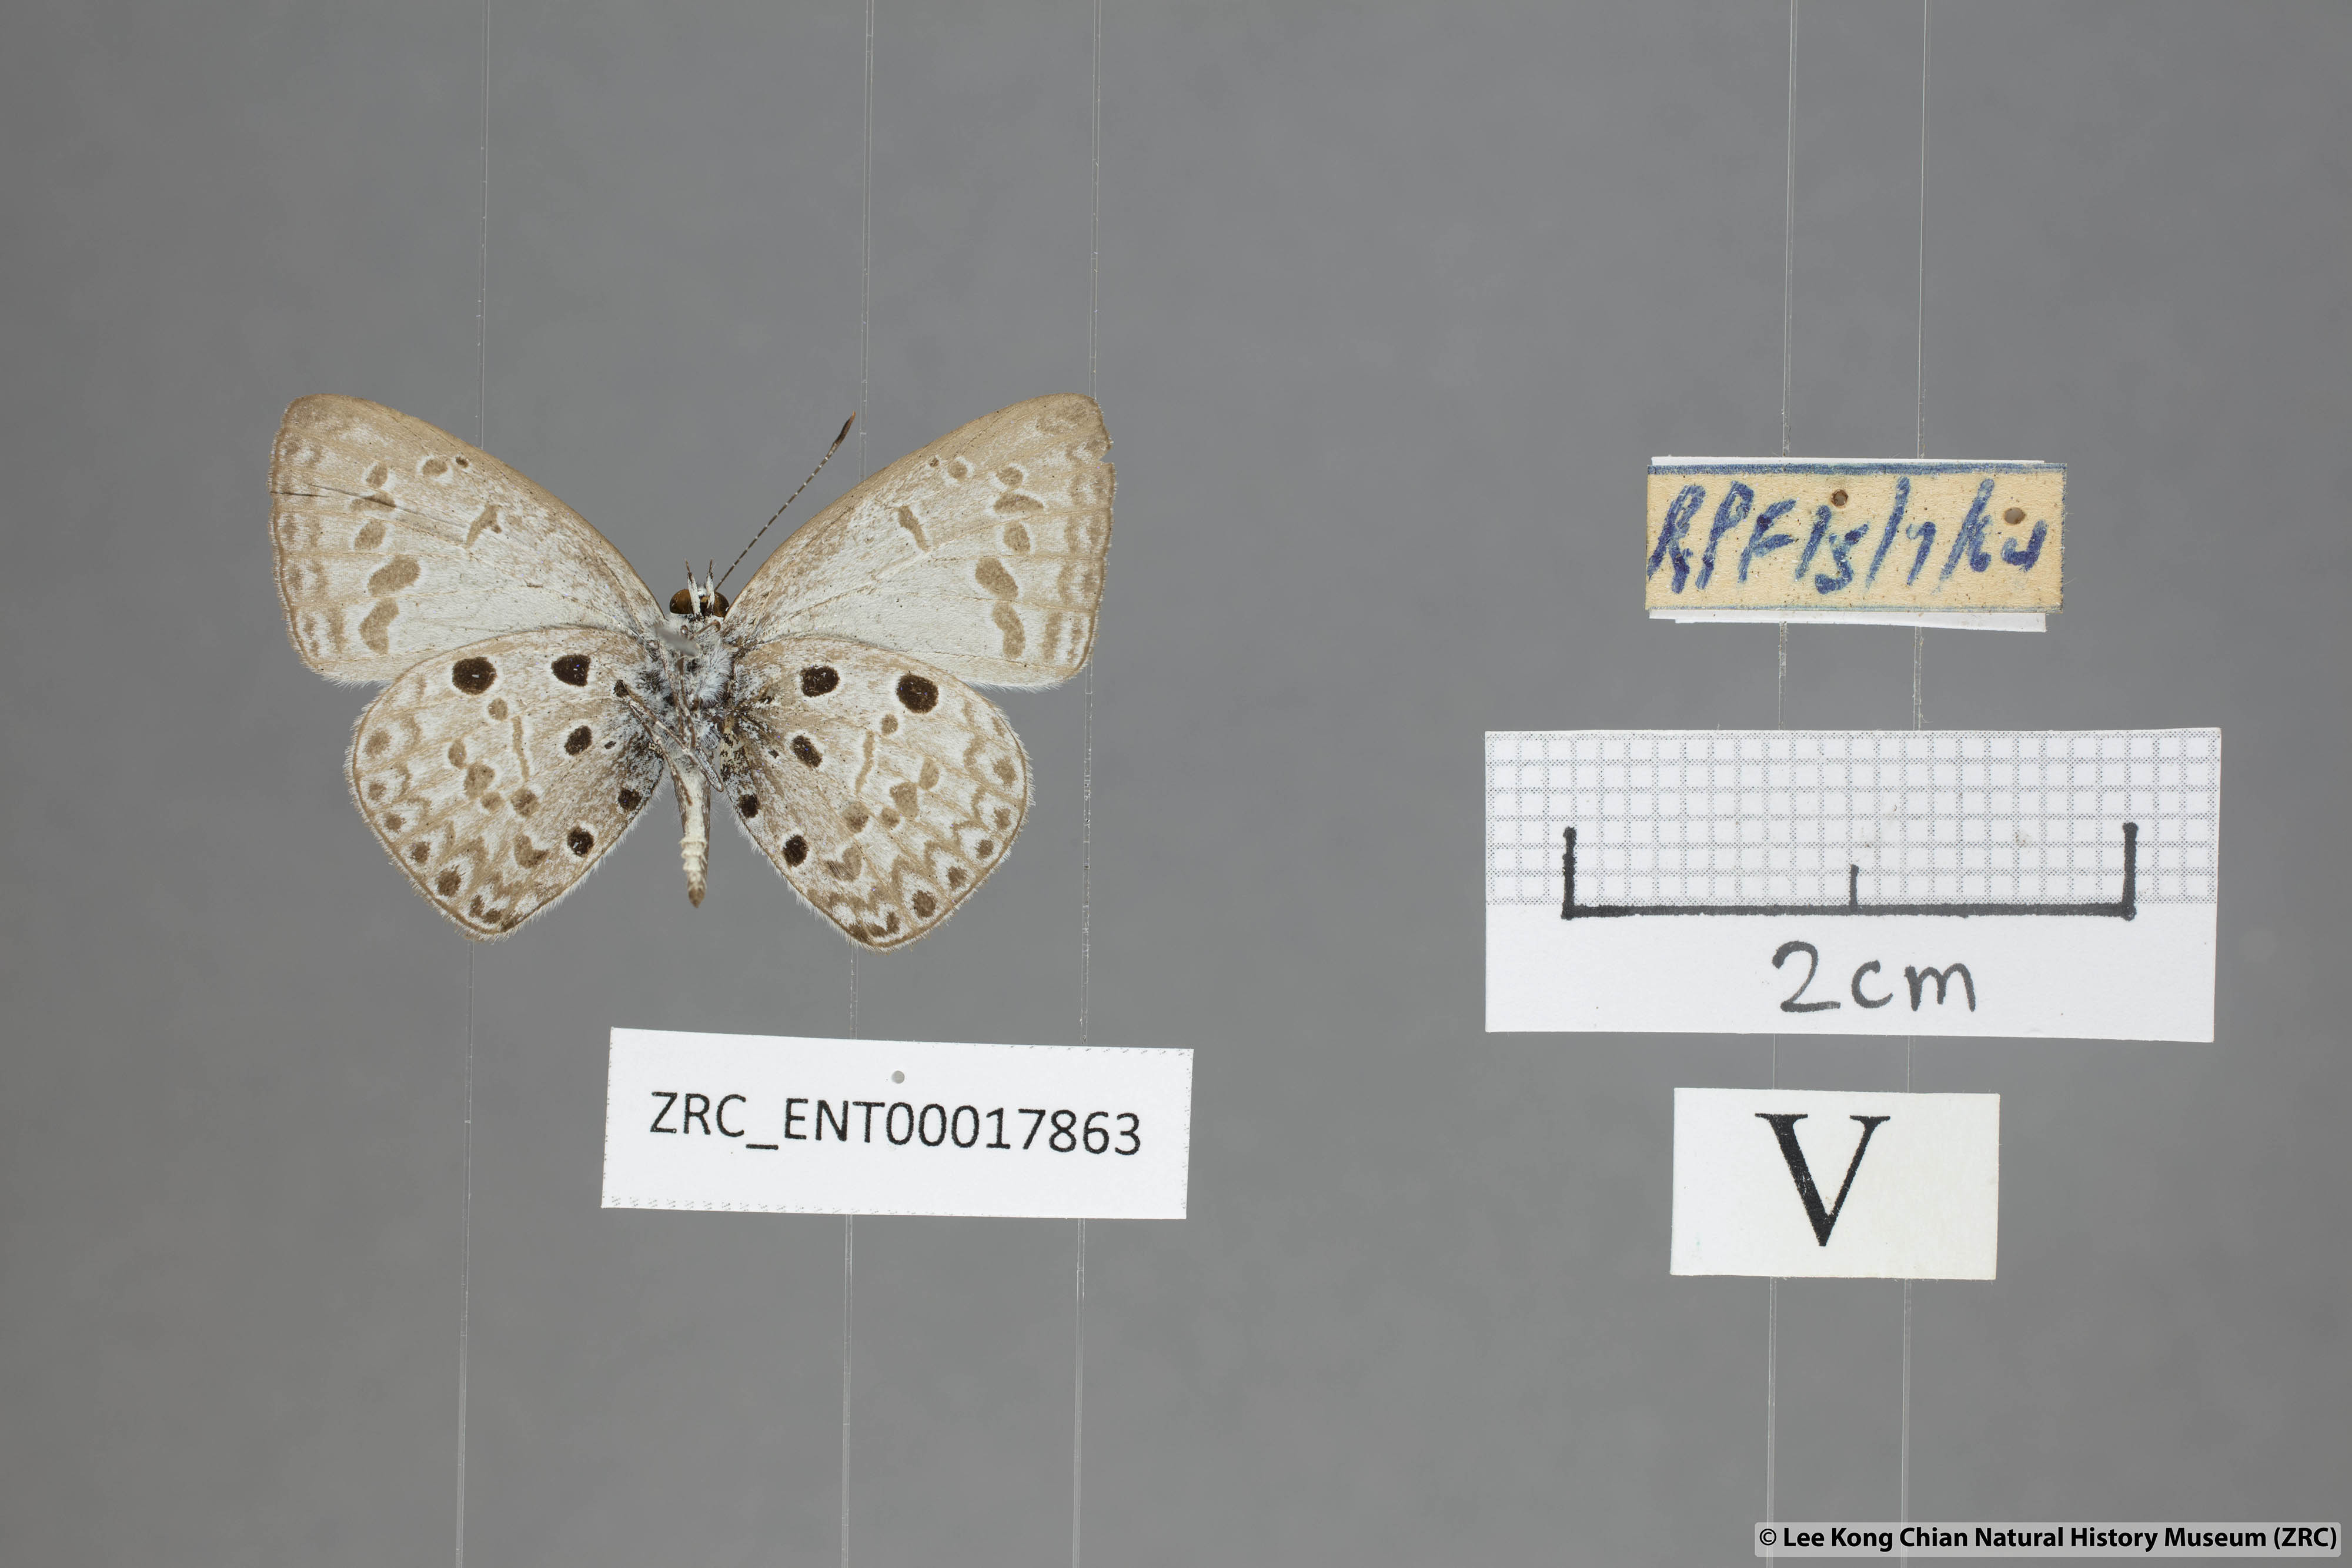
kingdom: Animalia
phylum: Arthropoda
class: Insecta
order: Lepidoptera
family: Lycaenidae
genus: Acytolepis
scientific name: Acytolepis puspa
